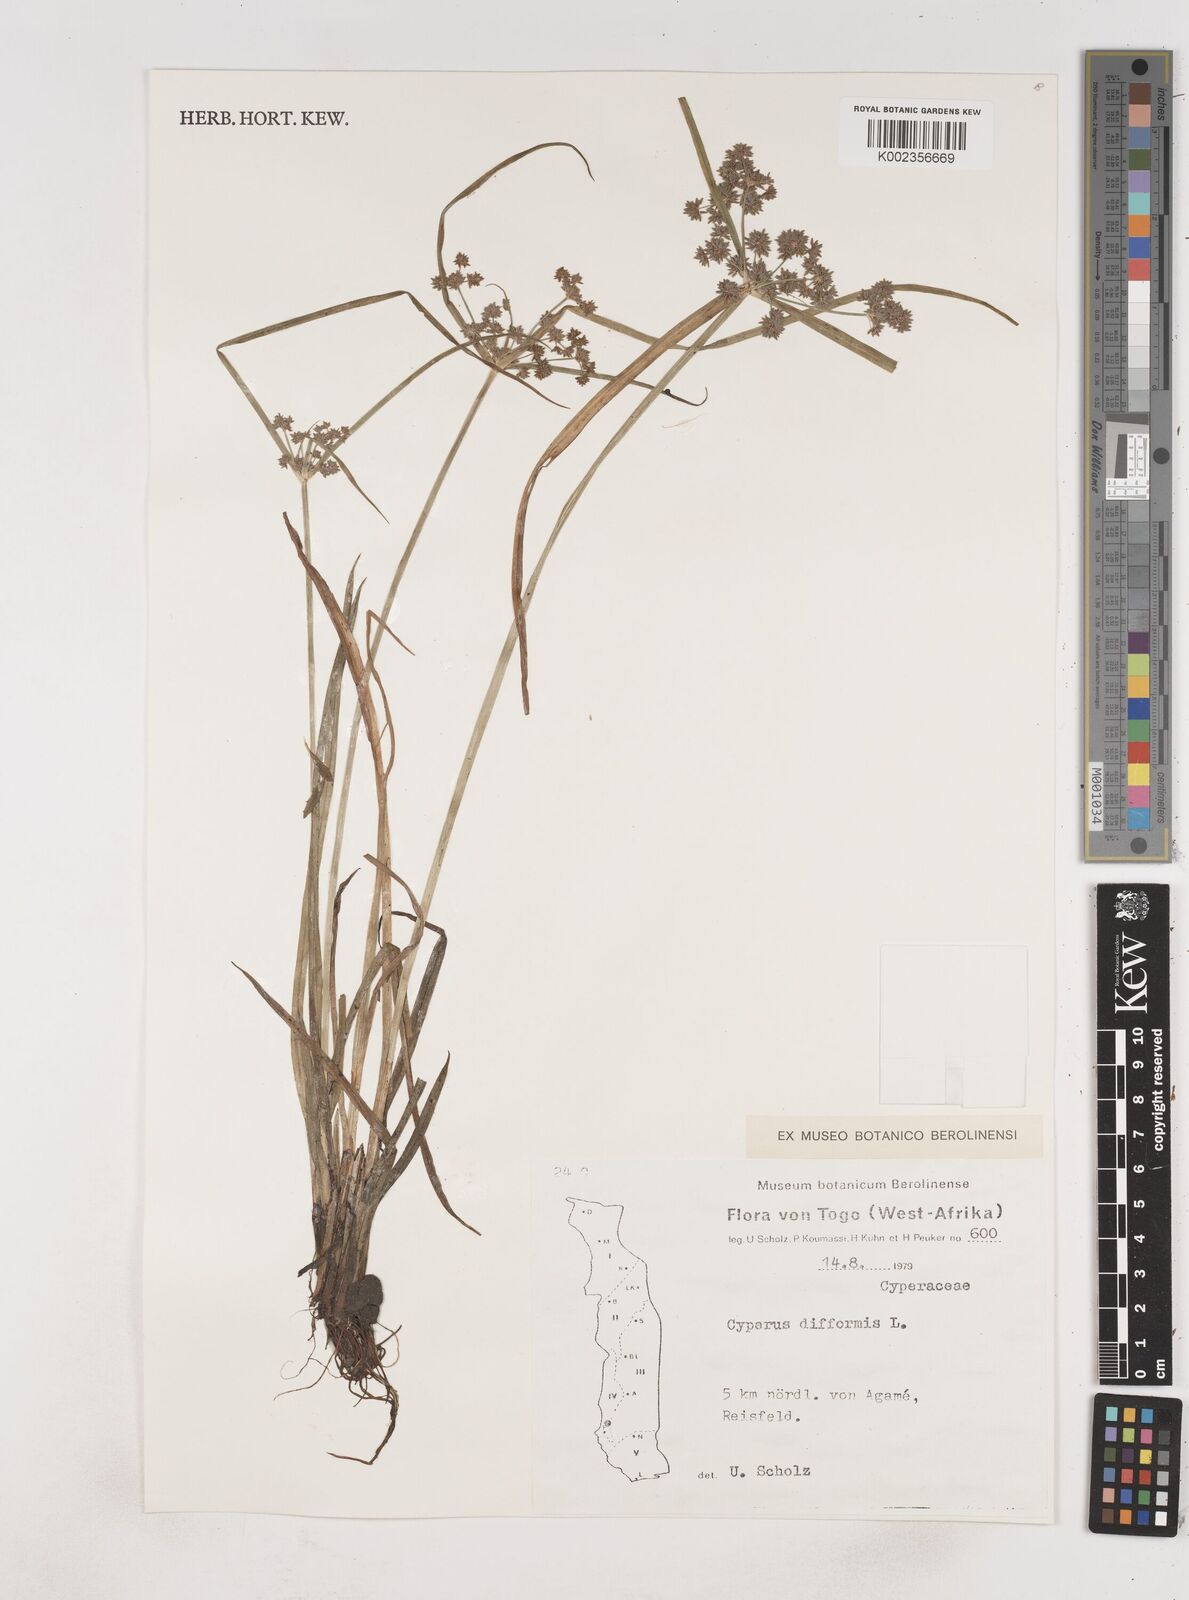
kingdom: Plantae
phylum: Tracheophyta
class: Liliopsida
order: Poales
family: Cyperaceae
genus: Cyperus
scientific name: Cyperus difformis
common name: Variable flatsedge
